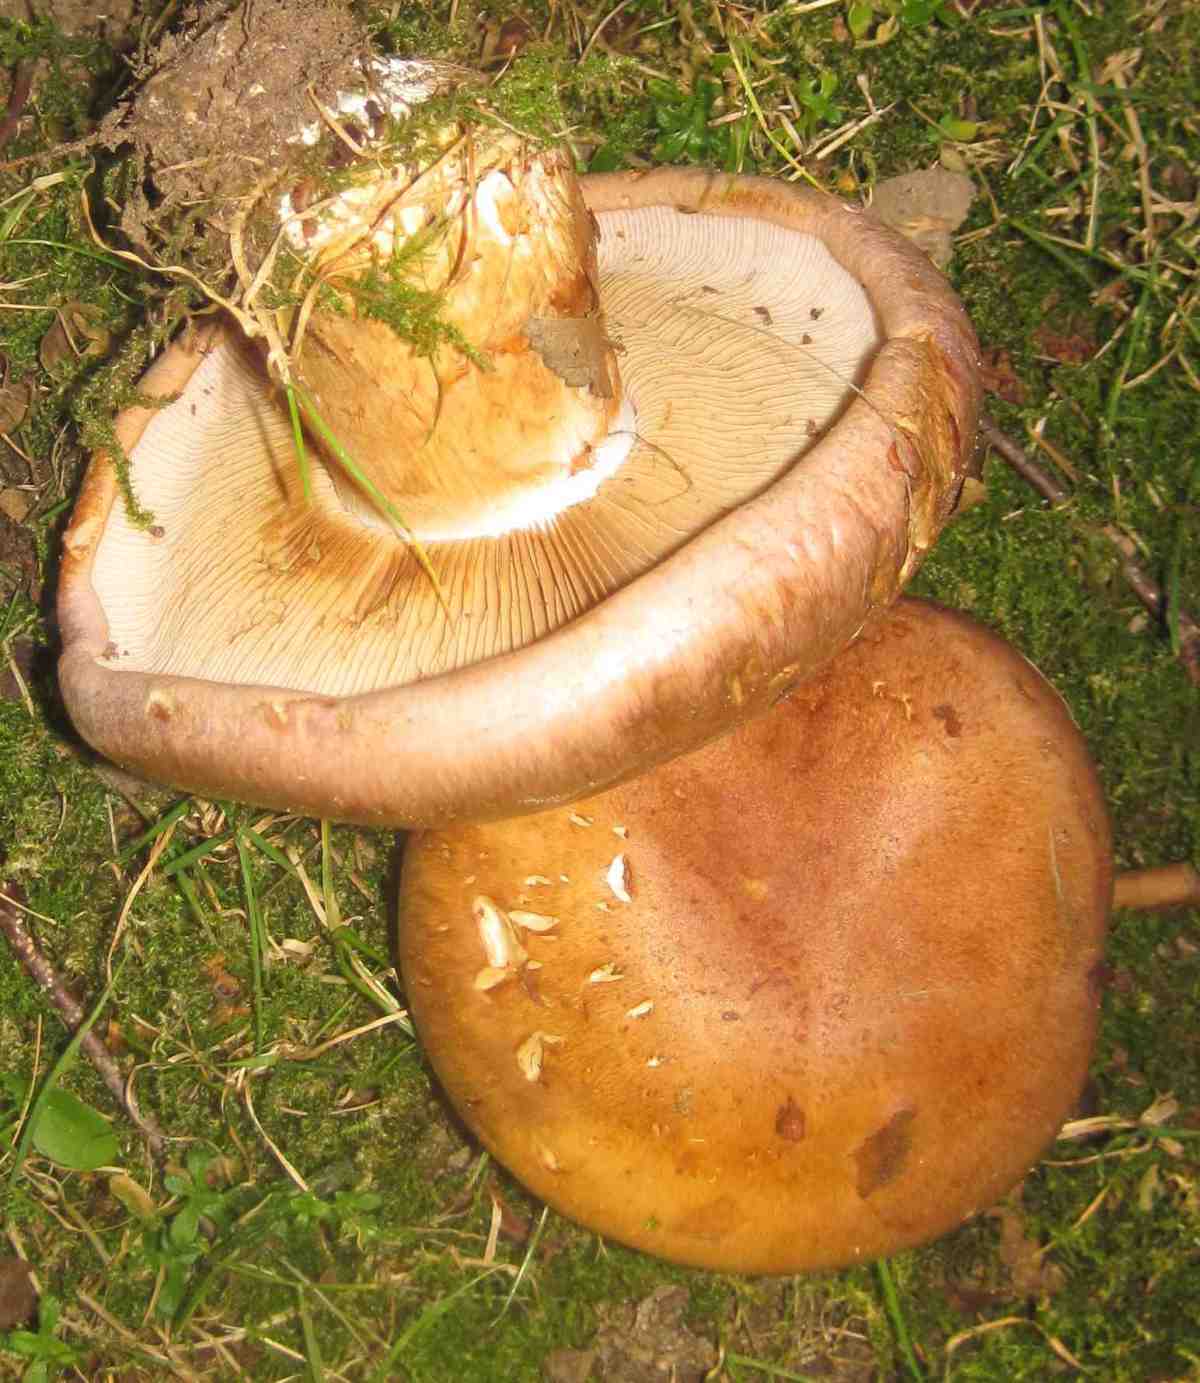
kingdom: Fungi
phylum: Basidiomycota
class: Agaricomycetes
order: Agaricales
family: Cortinariaceae
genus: Phlegmacium
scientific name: Phlegmacium balteatocumatile
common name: violettrådet slørhat
